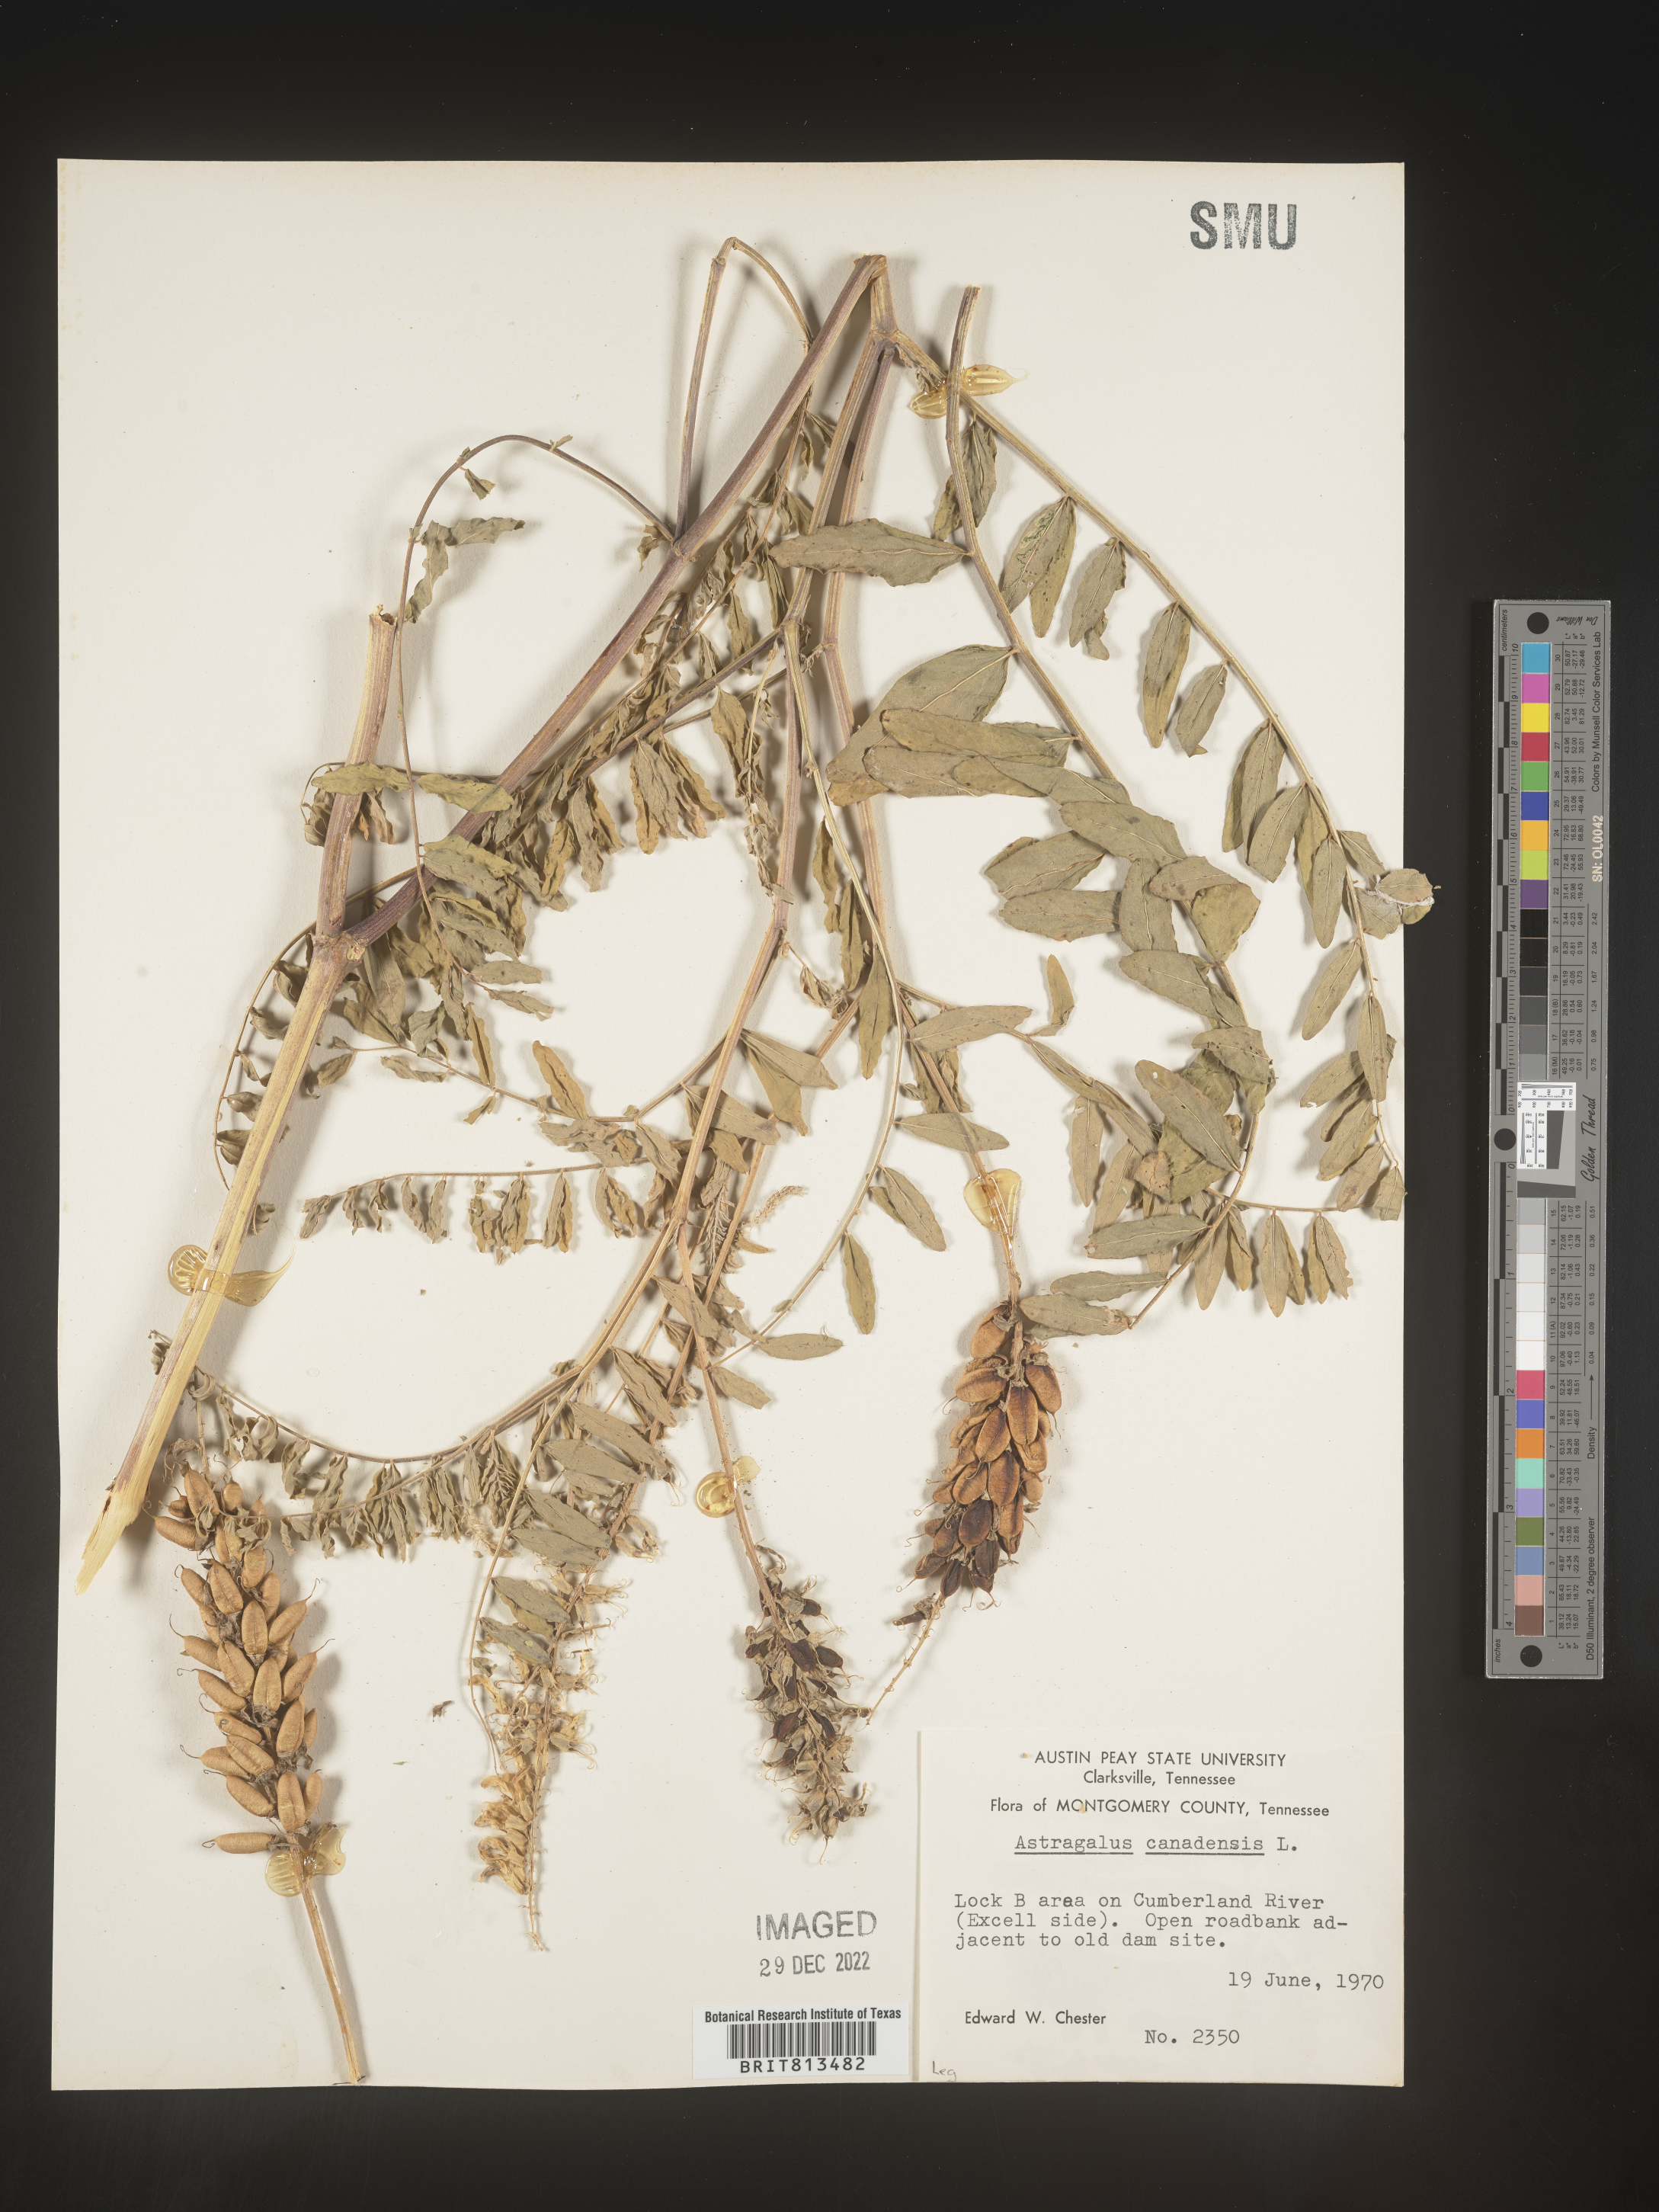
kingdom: Plantae
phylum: Tracheophyta
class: Magnoliopsida
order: Fabales
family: Fabaceae
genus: Astragalus
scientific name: Astragalus canadensis
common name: Canada milk-vetch
